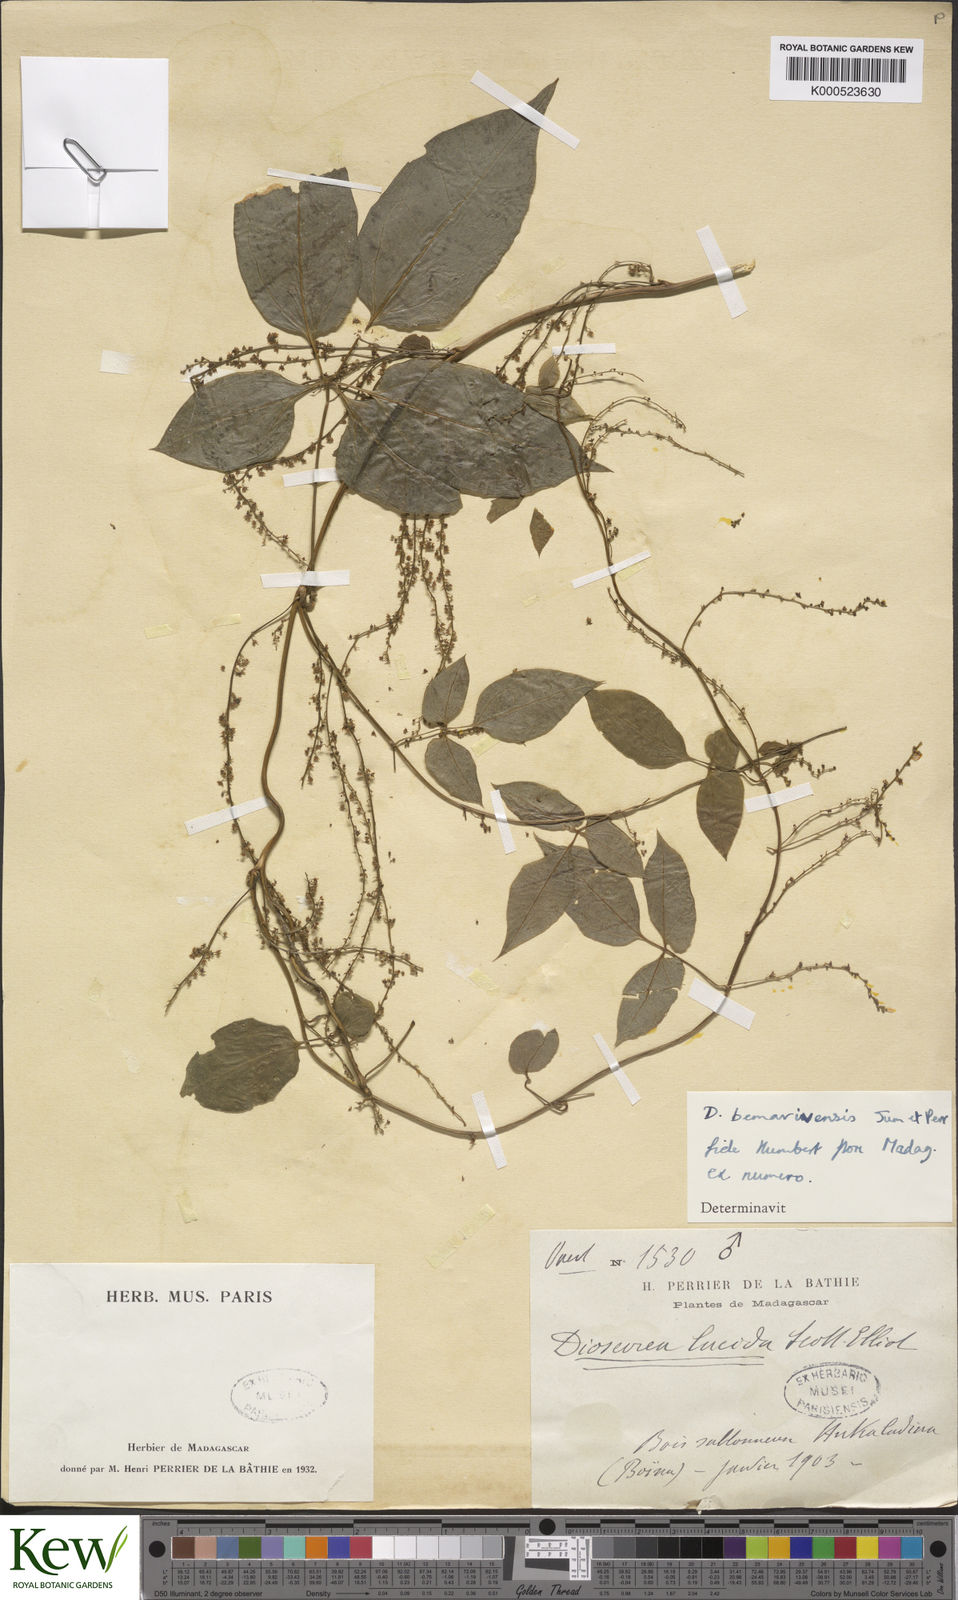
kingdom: Plantae
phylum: Tracheophyta
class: Liliopsida
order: Dioscoreales
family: Dioscoreaceae
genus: Dioscorea
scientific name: Dioscorea bemarivensis
